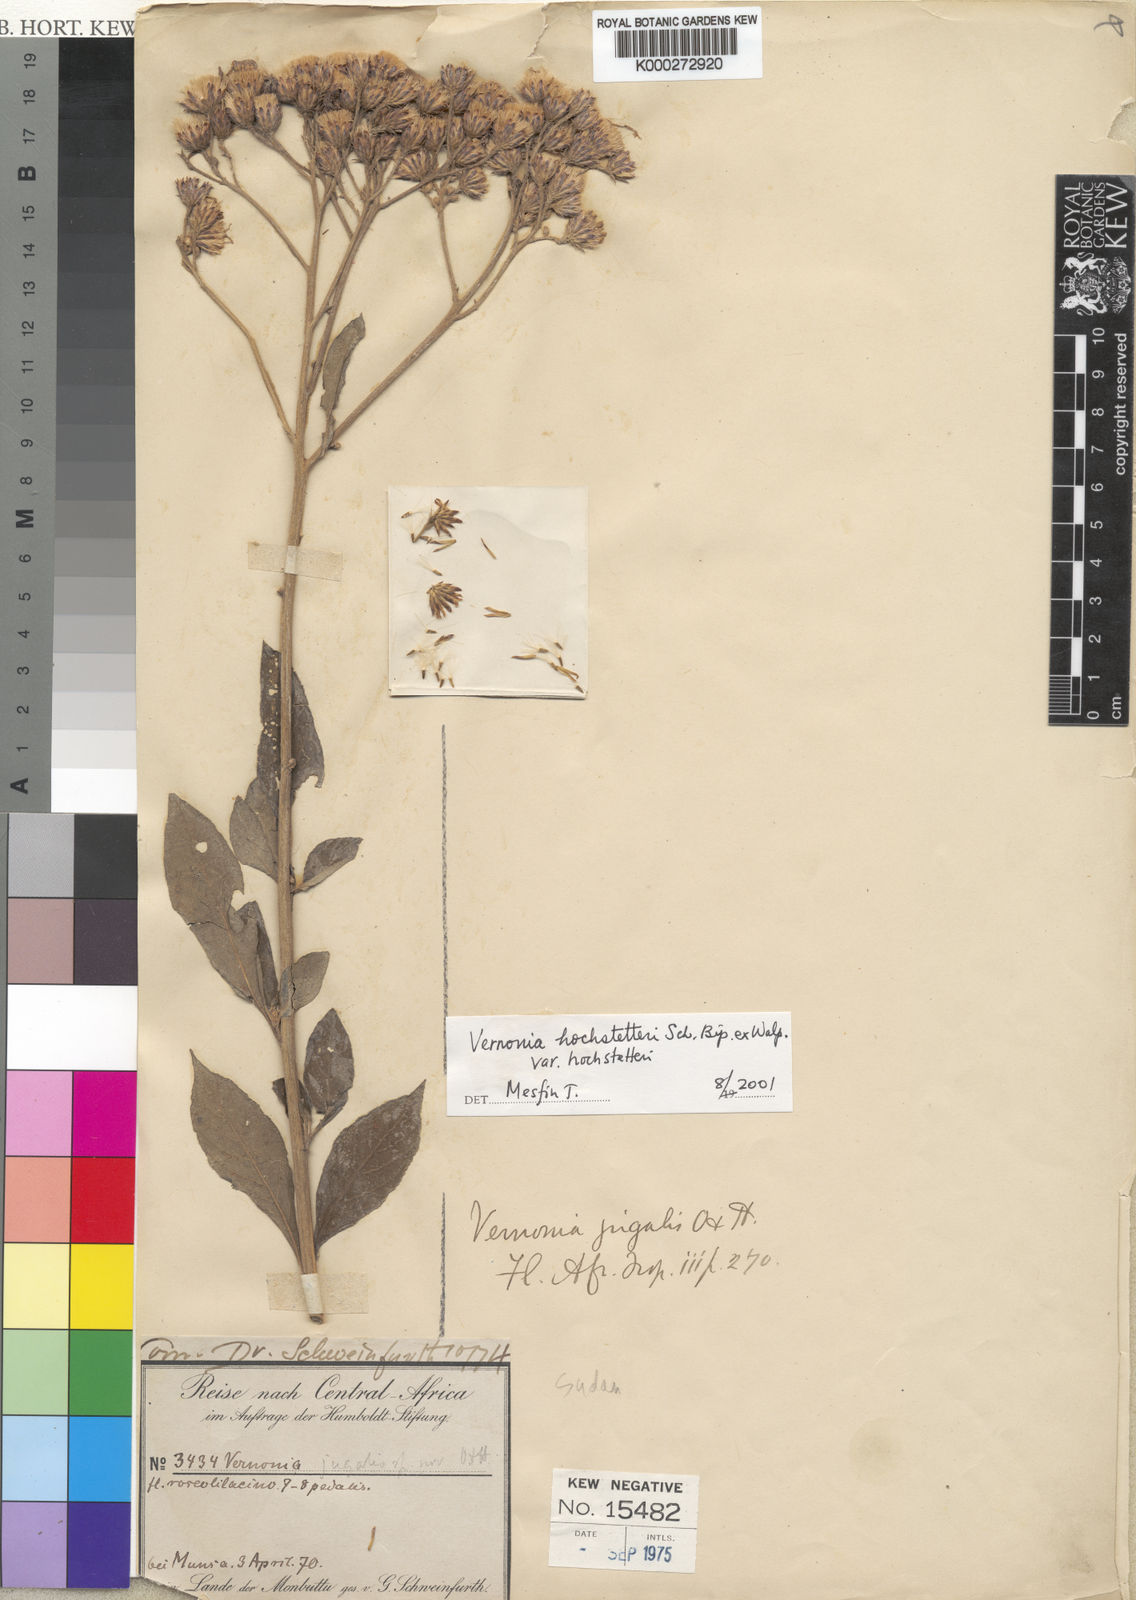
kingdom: Plantae
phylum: Tracheophyta
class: Magnoliopsida
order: Asterales
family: Asteraceae
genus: Ambassa
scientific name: Ambassa hochstetteri
